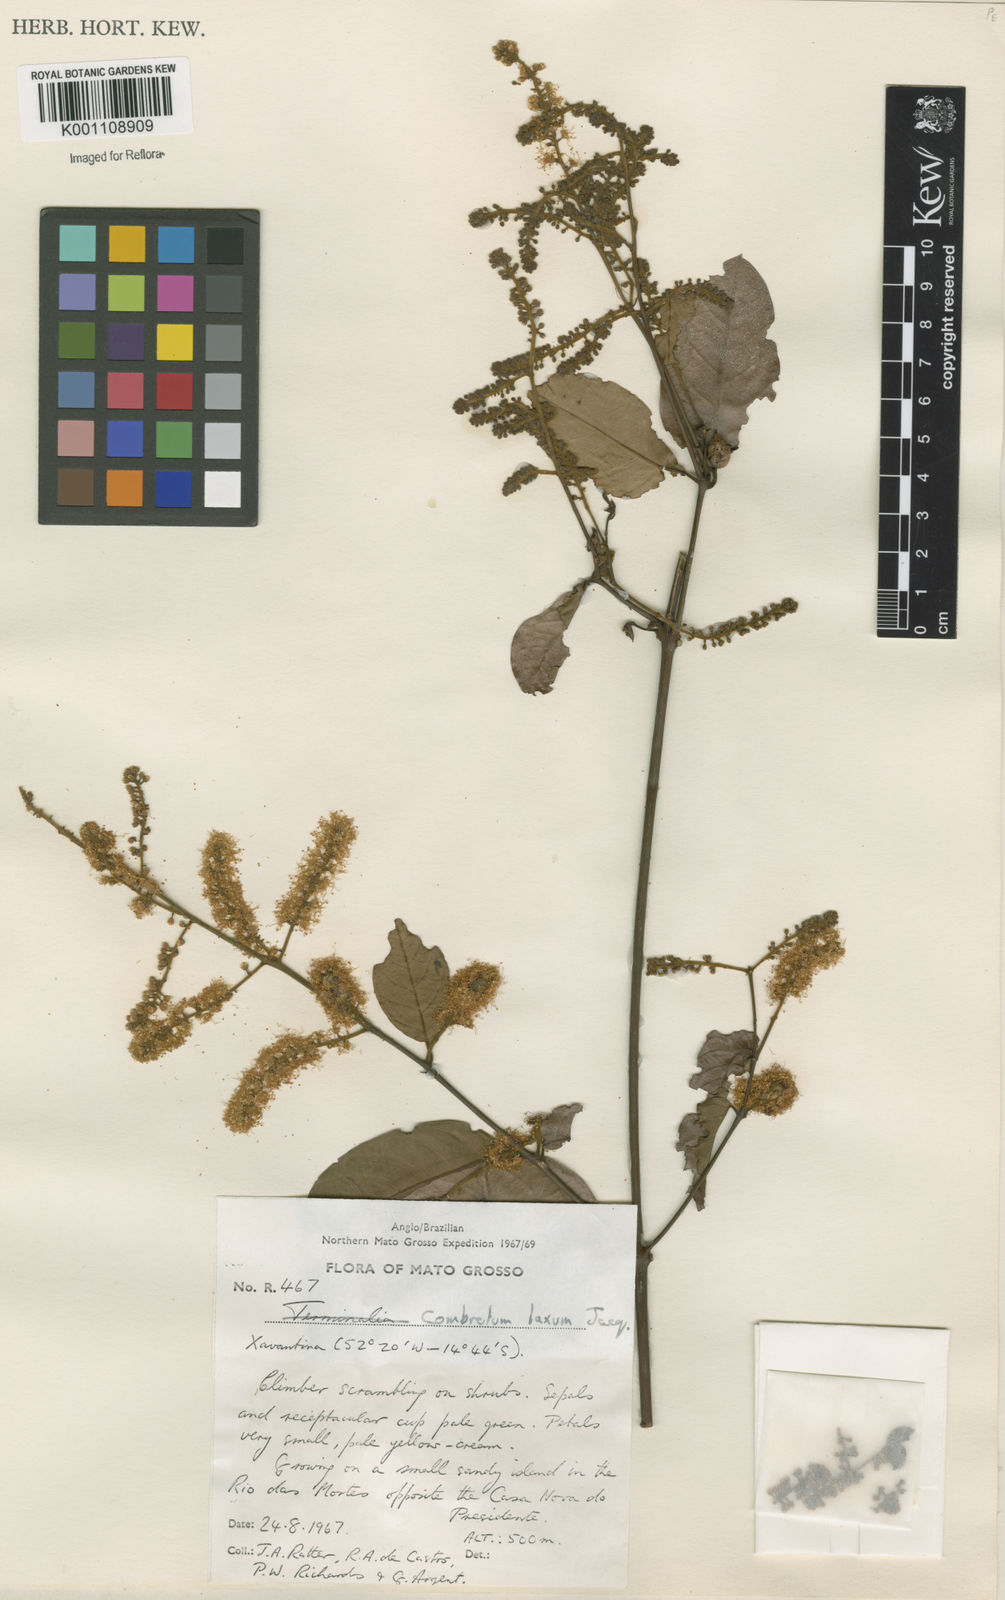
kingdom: Plantae
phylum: Tracheophyta
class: Magnoliopsida
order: Myrtales
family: Combretaceae
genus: Combretum
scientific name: Combretum laxum
